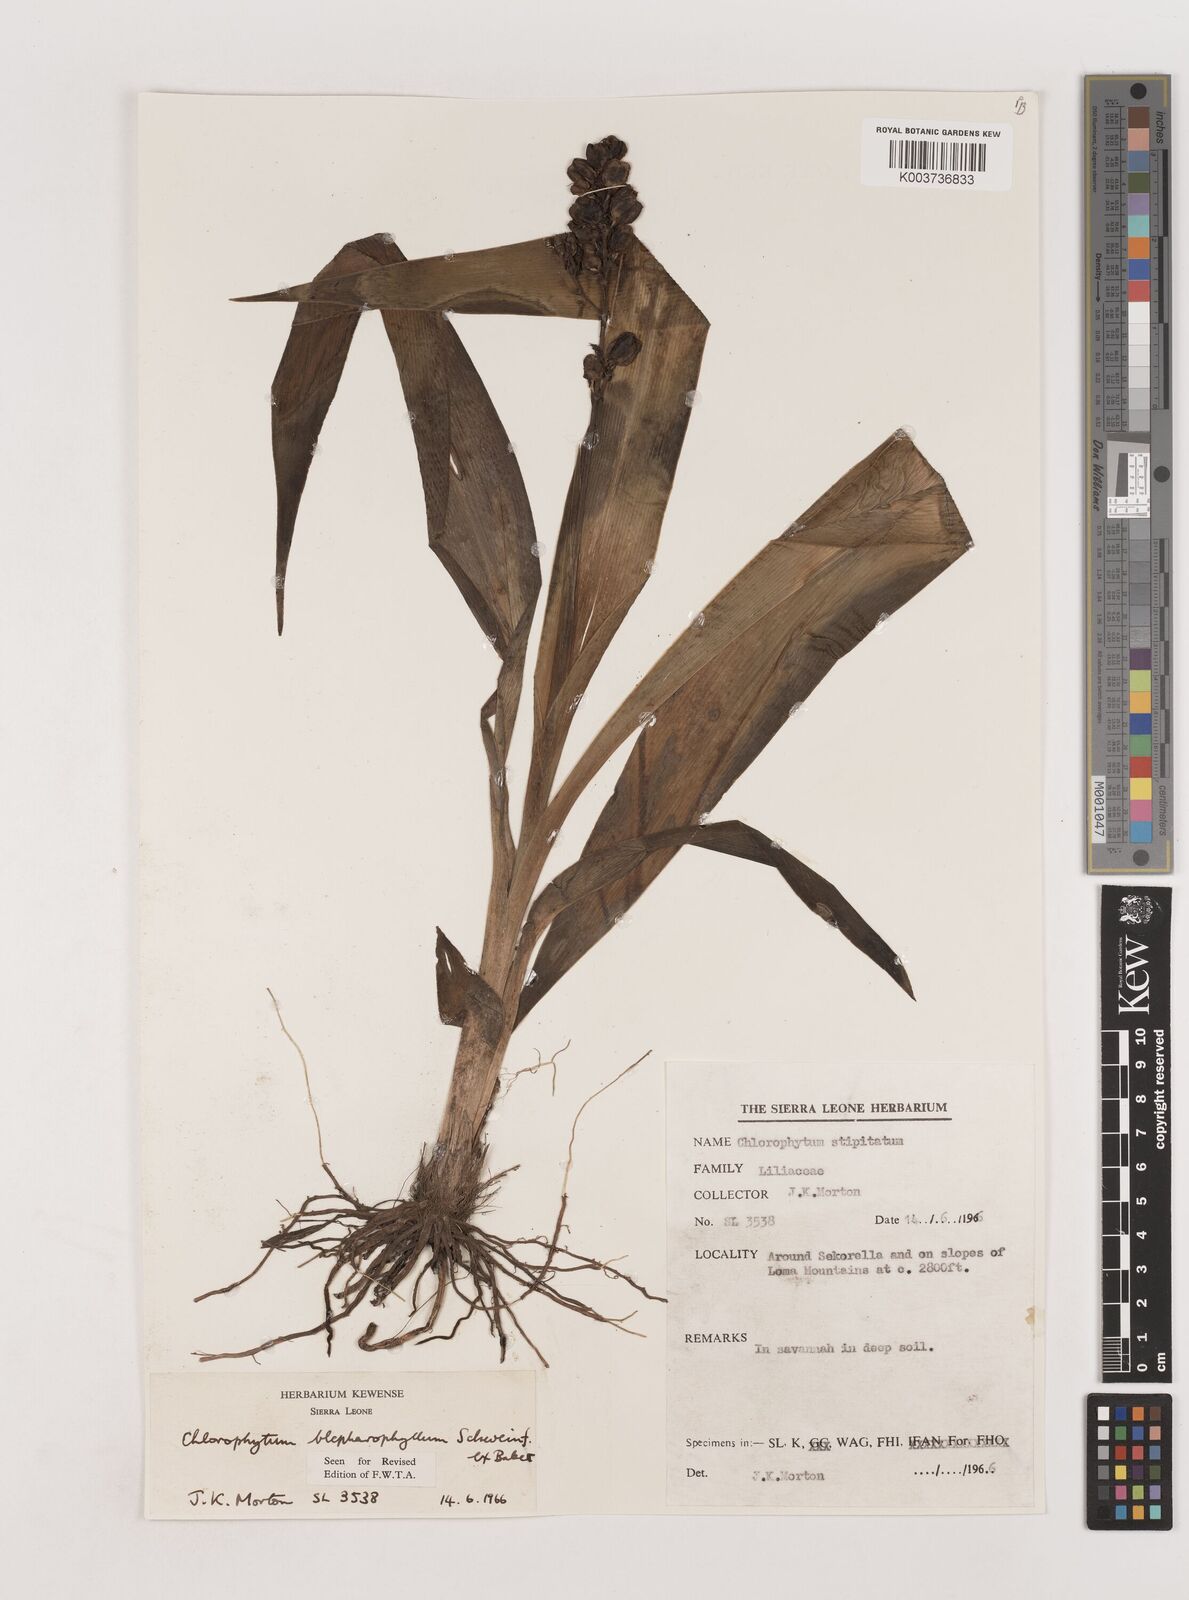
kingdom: Plantae
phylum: Tracheophyta
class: Liliopsida
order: Asparagales
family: Asparagaceae
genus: Chlorophytum
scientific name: Chlorophytum blepharophyllum
